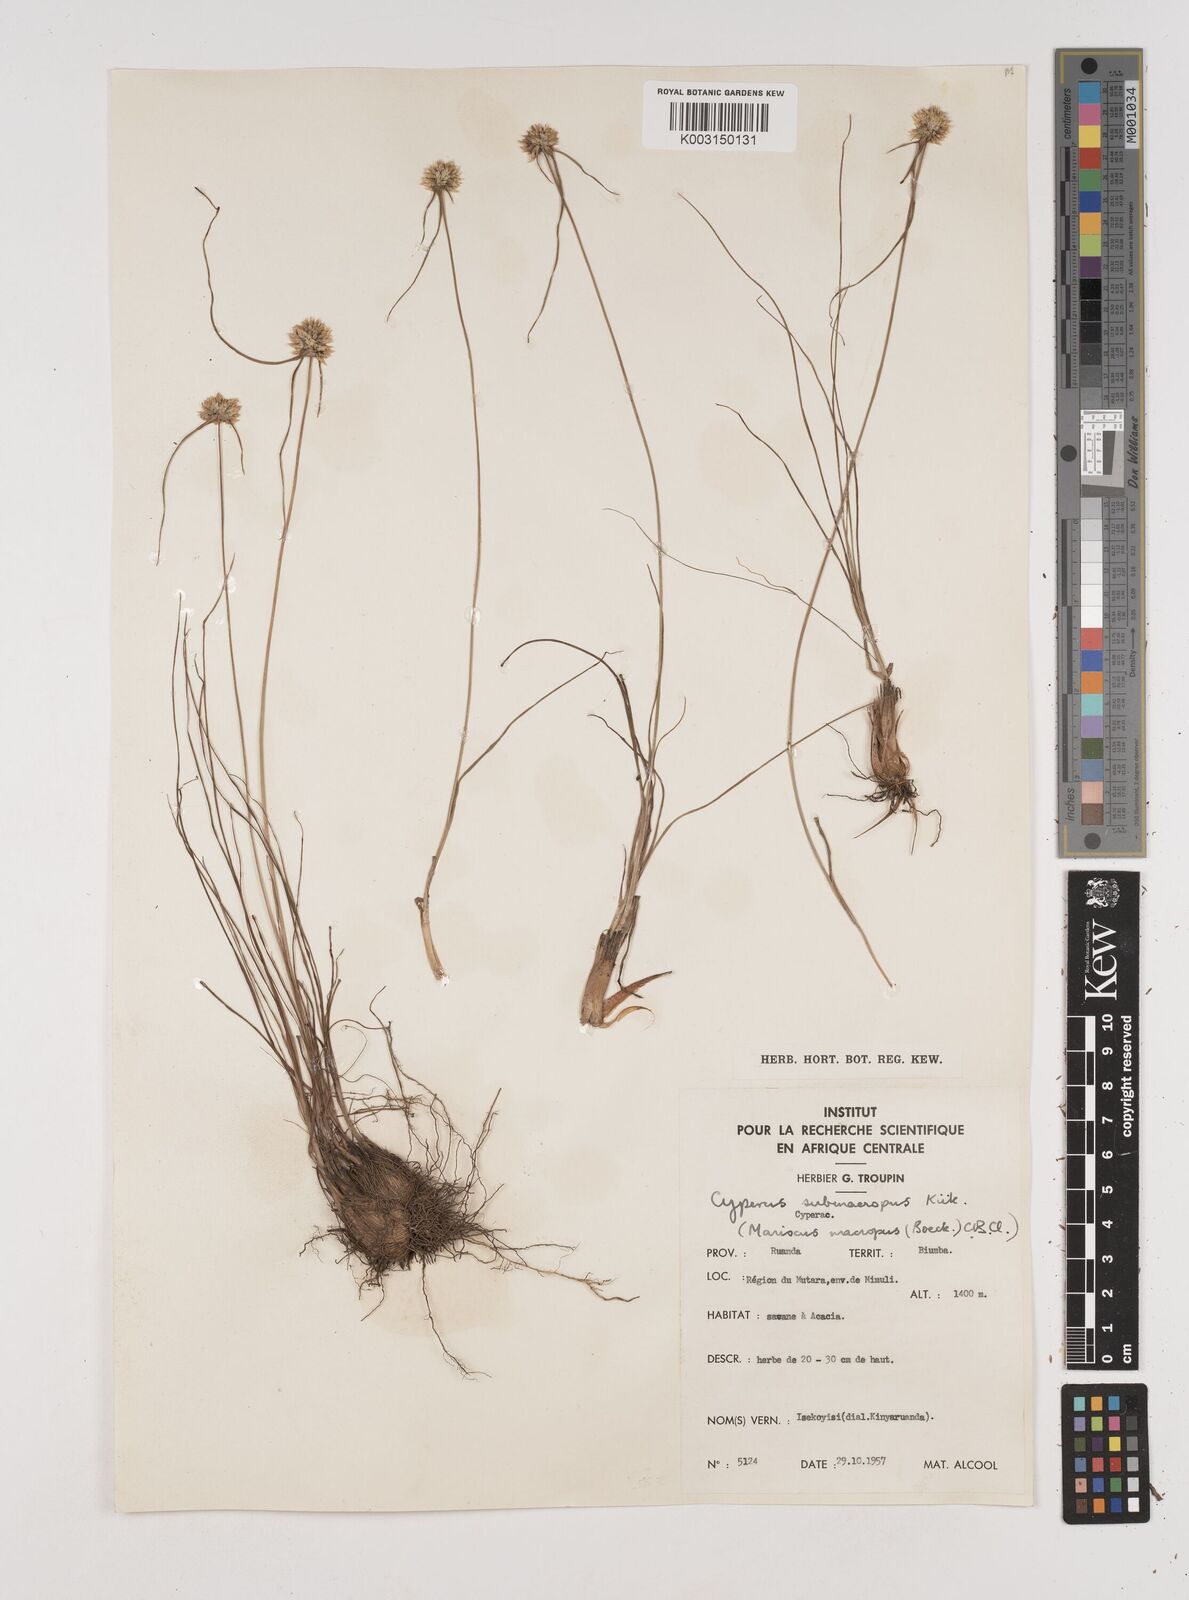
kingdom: Plantae
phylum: Tracheophyta
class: Liliopsida
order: Poales
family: Cyperaceae
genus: Cyperus
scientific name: Cyperus mollipes
